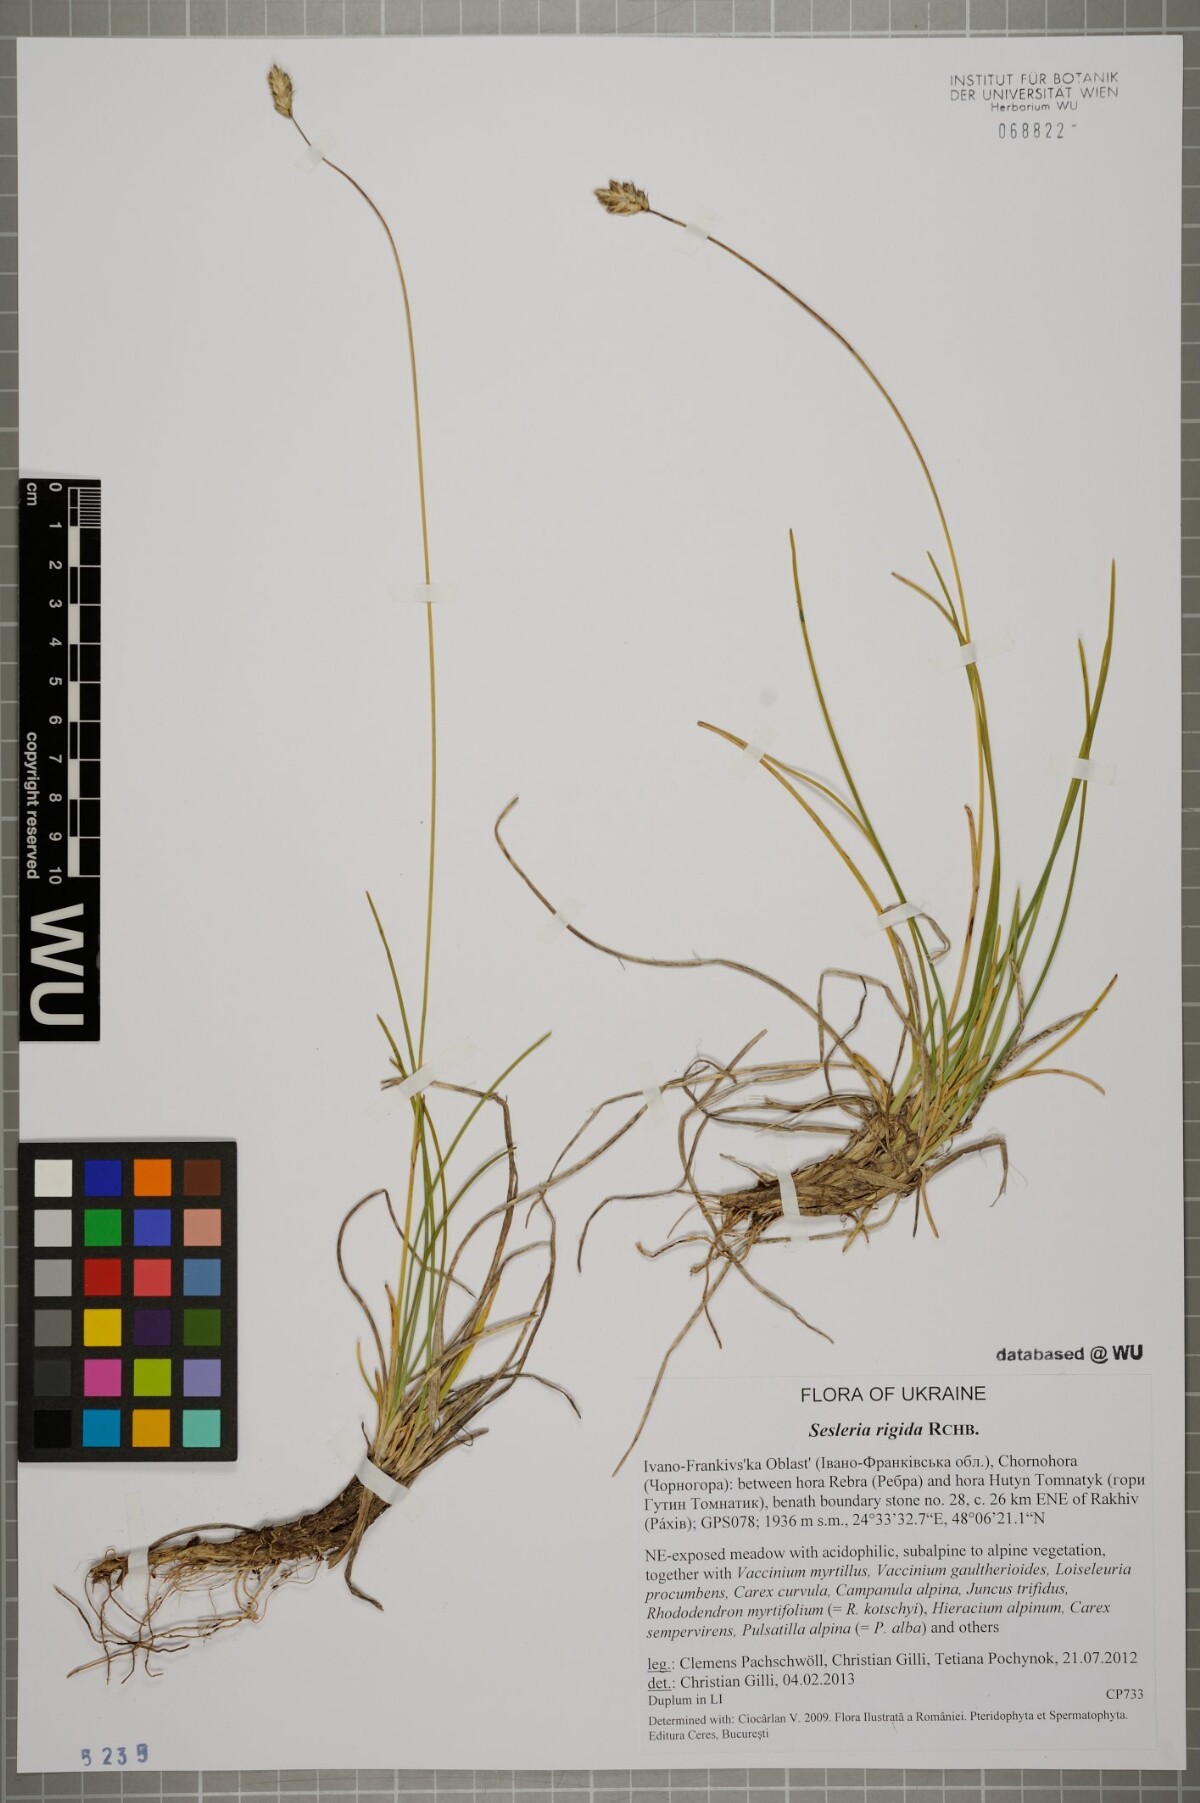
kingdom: Plantae
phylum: Tracheophyta
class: Liliopsida
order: Poales
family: Poaceae
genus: Sesleria
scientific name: Sesleria coerulans
